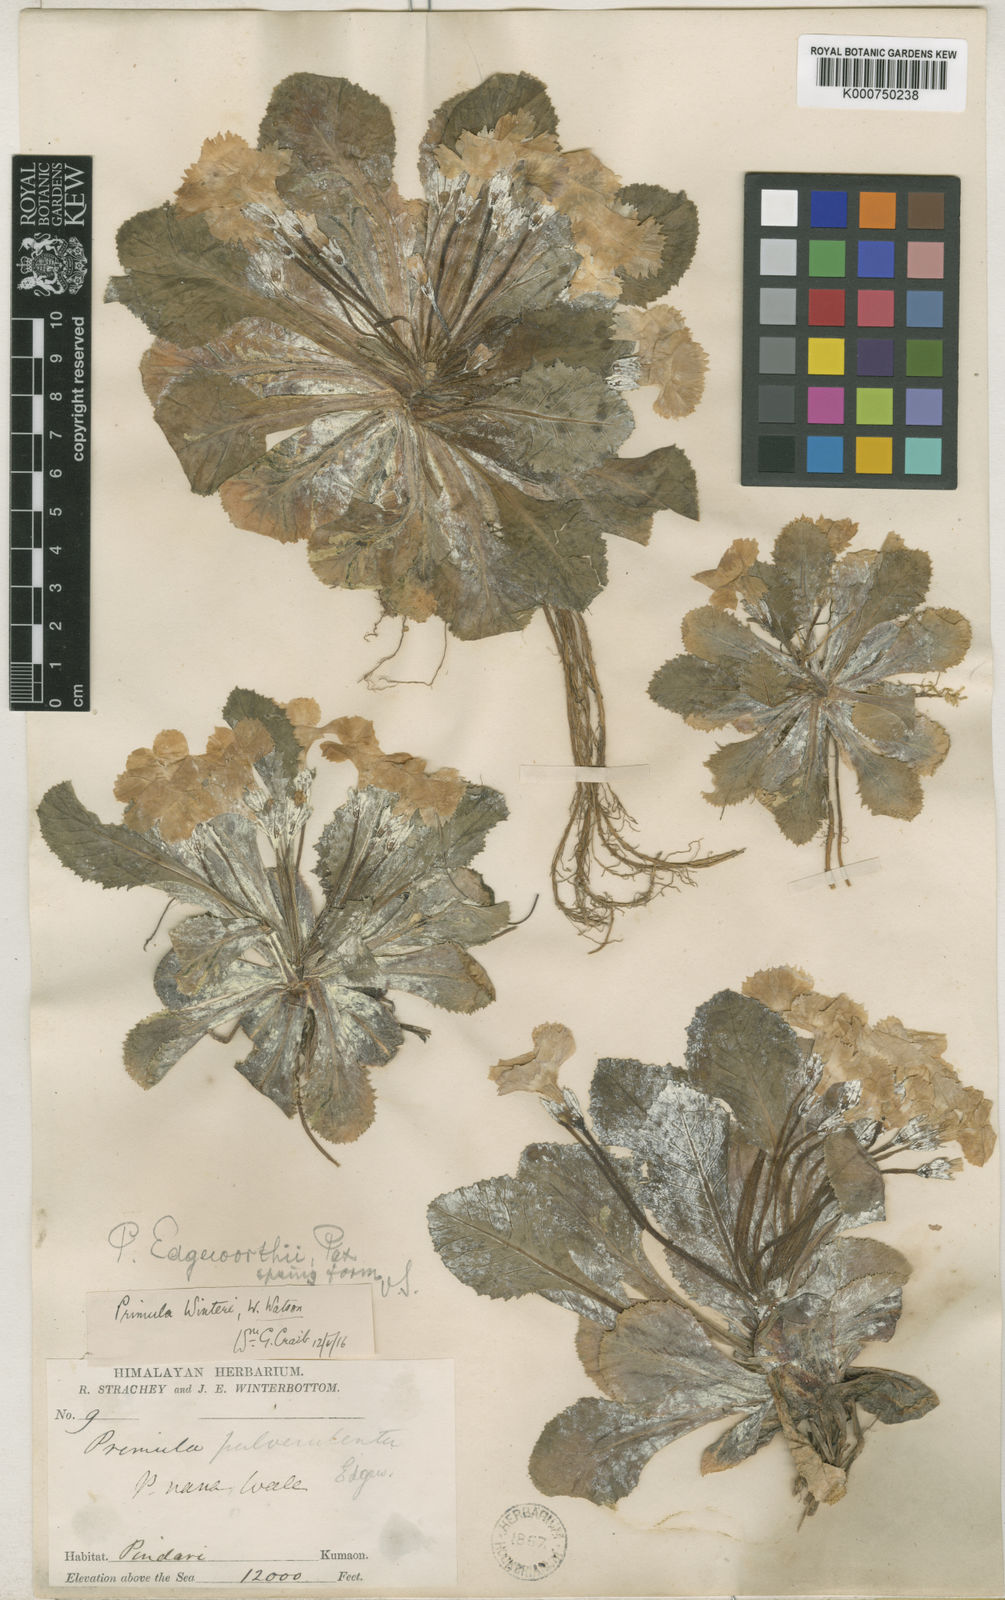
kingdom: Plantae
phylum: Tracheophyta
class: Magnoliopsida
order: Ericales
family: Primulaceae
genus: Primula
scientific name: Primula nana
